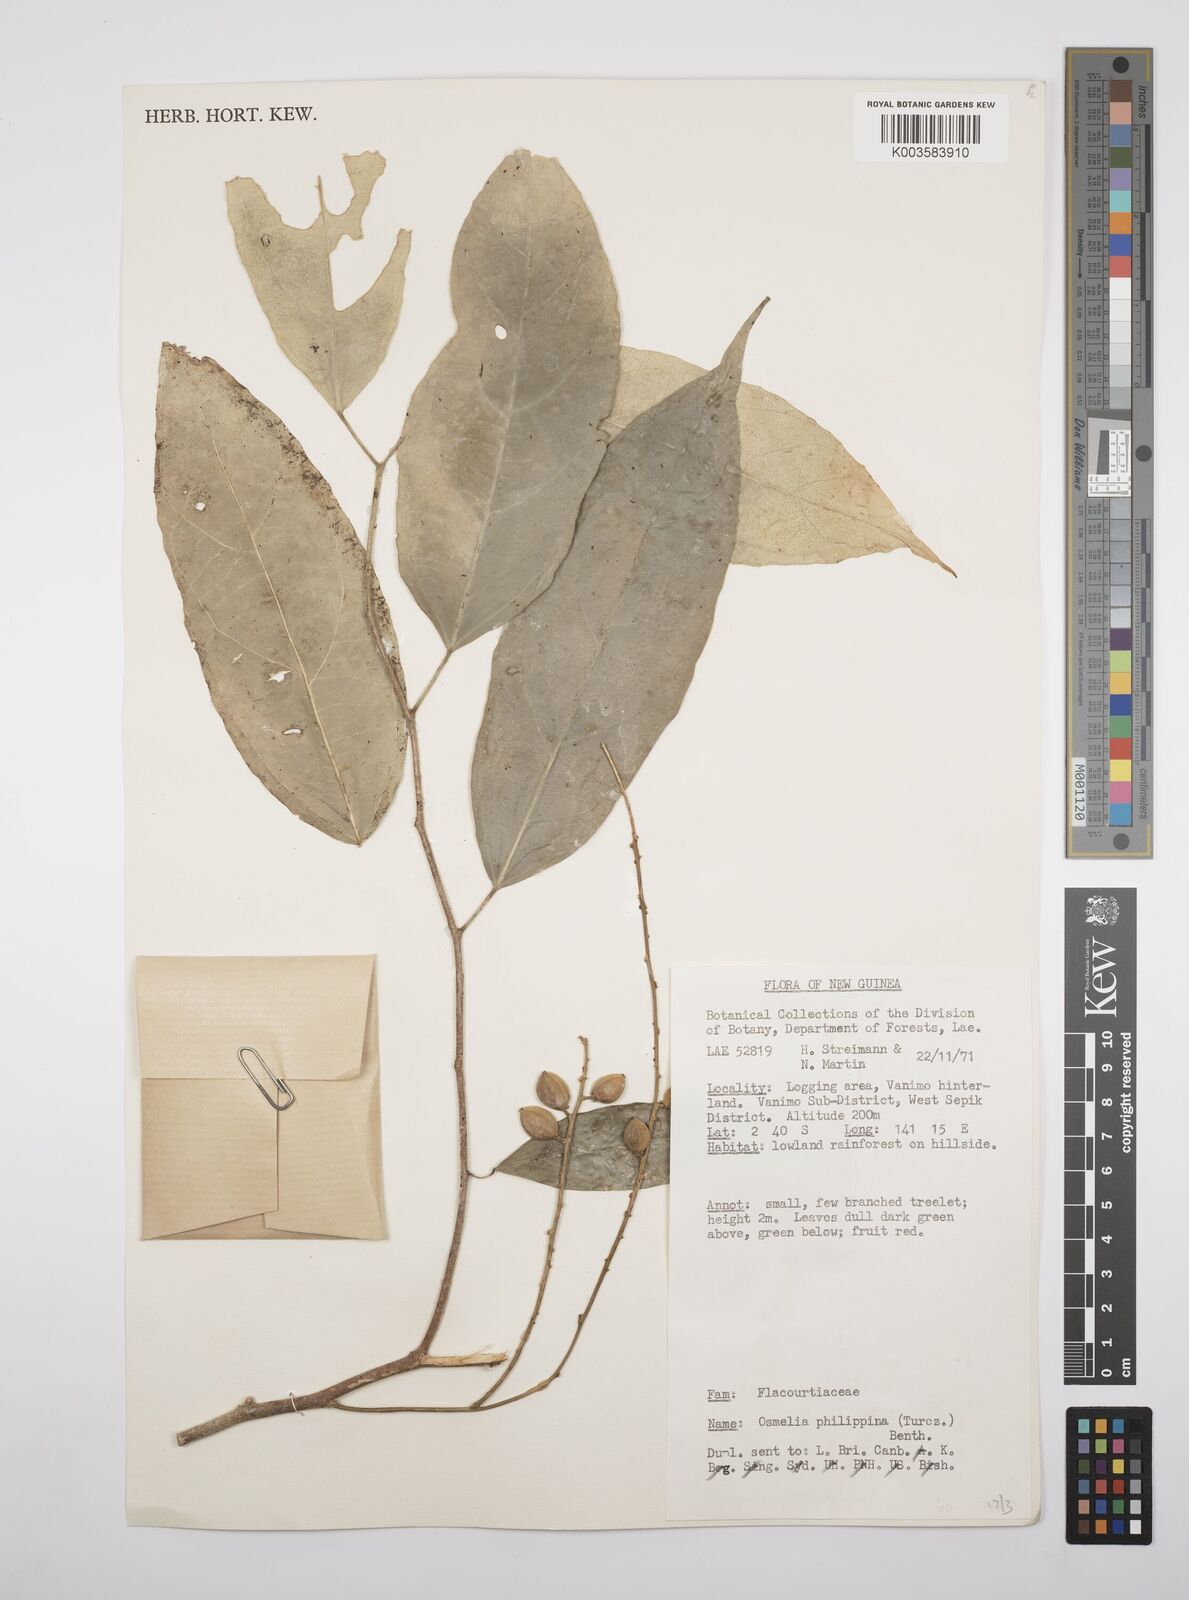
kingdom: Plantae
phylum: Tracheophyta
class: Magnoliopsida
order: Malpighiales
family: Salicaceae
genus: Osmelia
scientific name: Osmelia philippina
